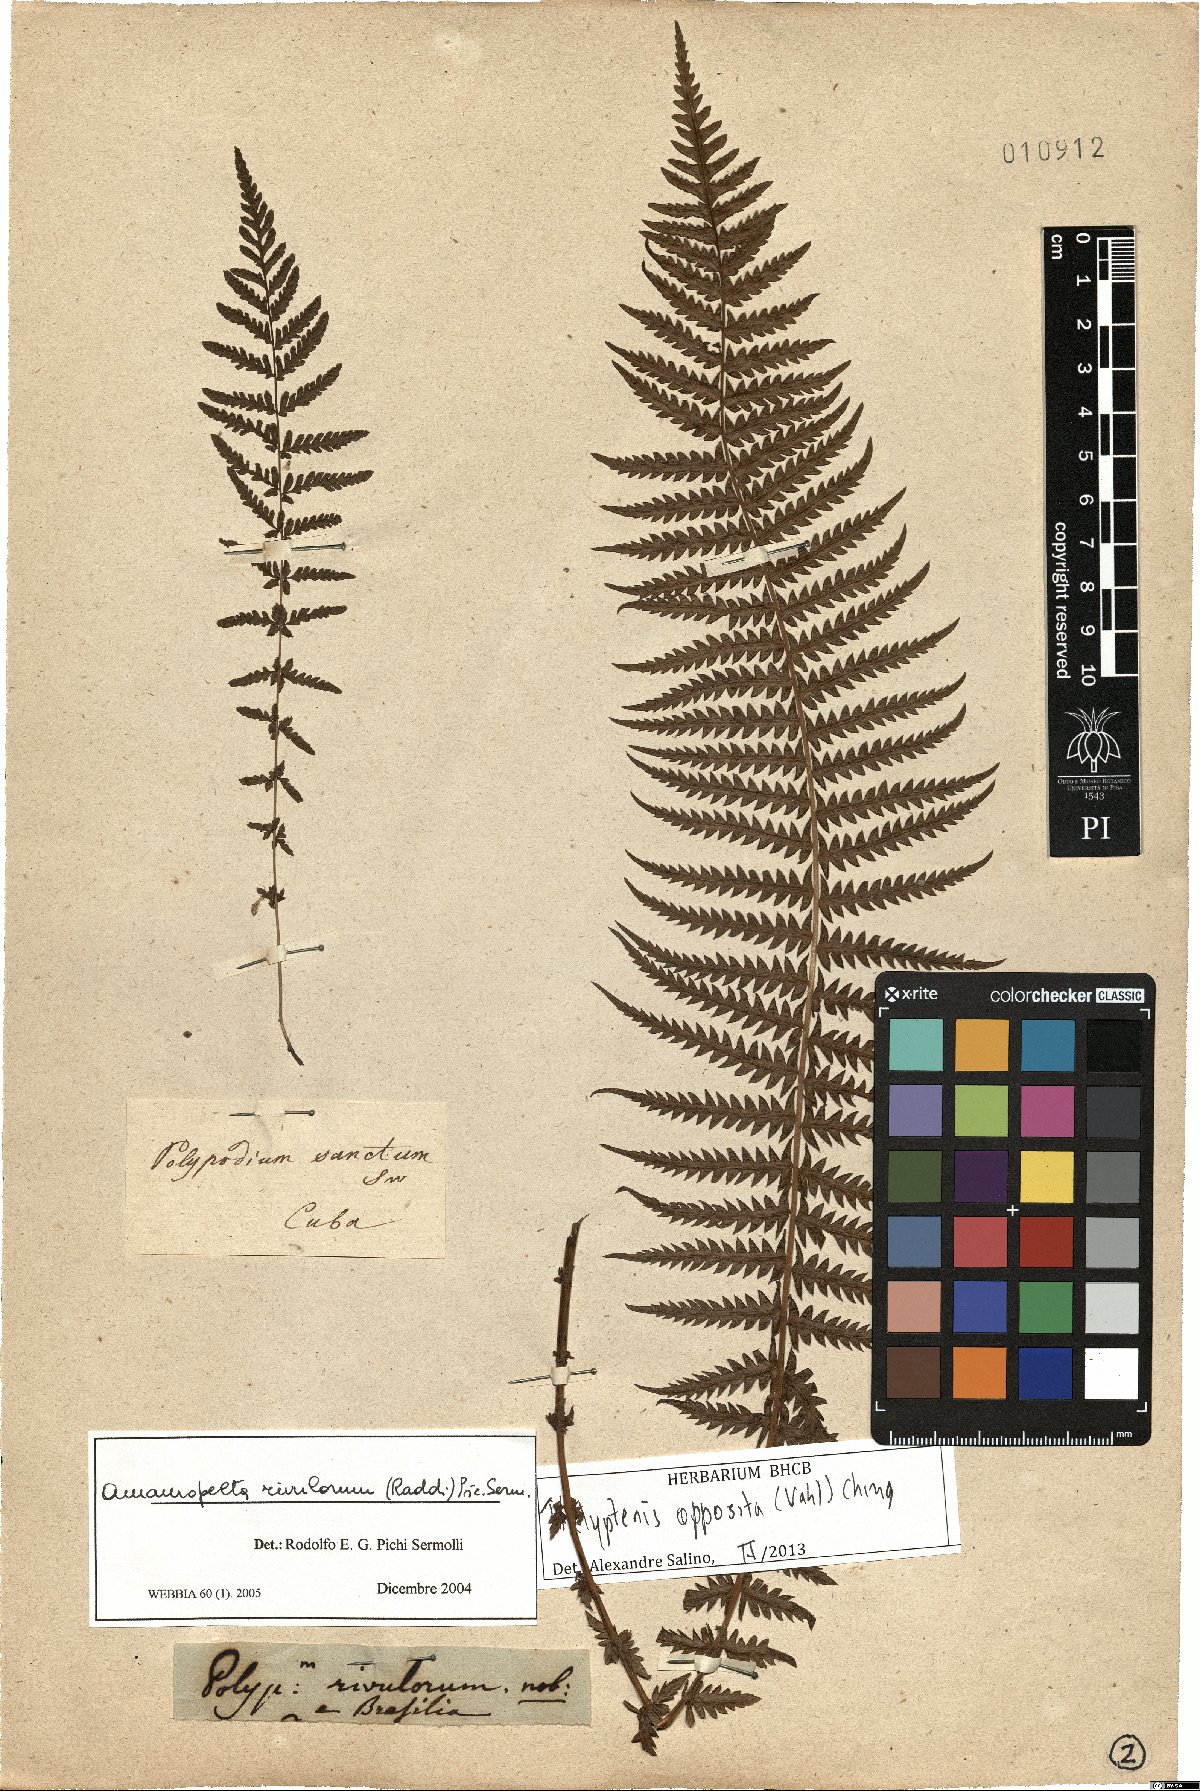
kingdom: Plantae
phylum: Tracheophyta
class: Polypodiopsida
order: Polypodiales
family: Thelypteridaceae
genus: Amauropelta
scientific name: Amauropelta opposita
